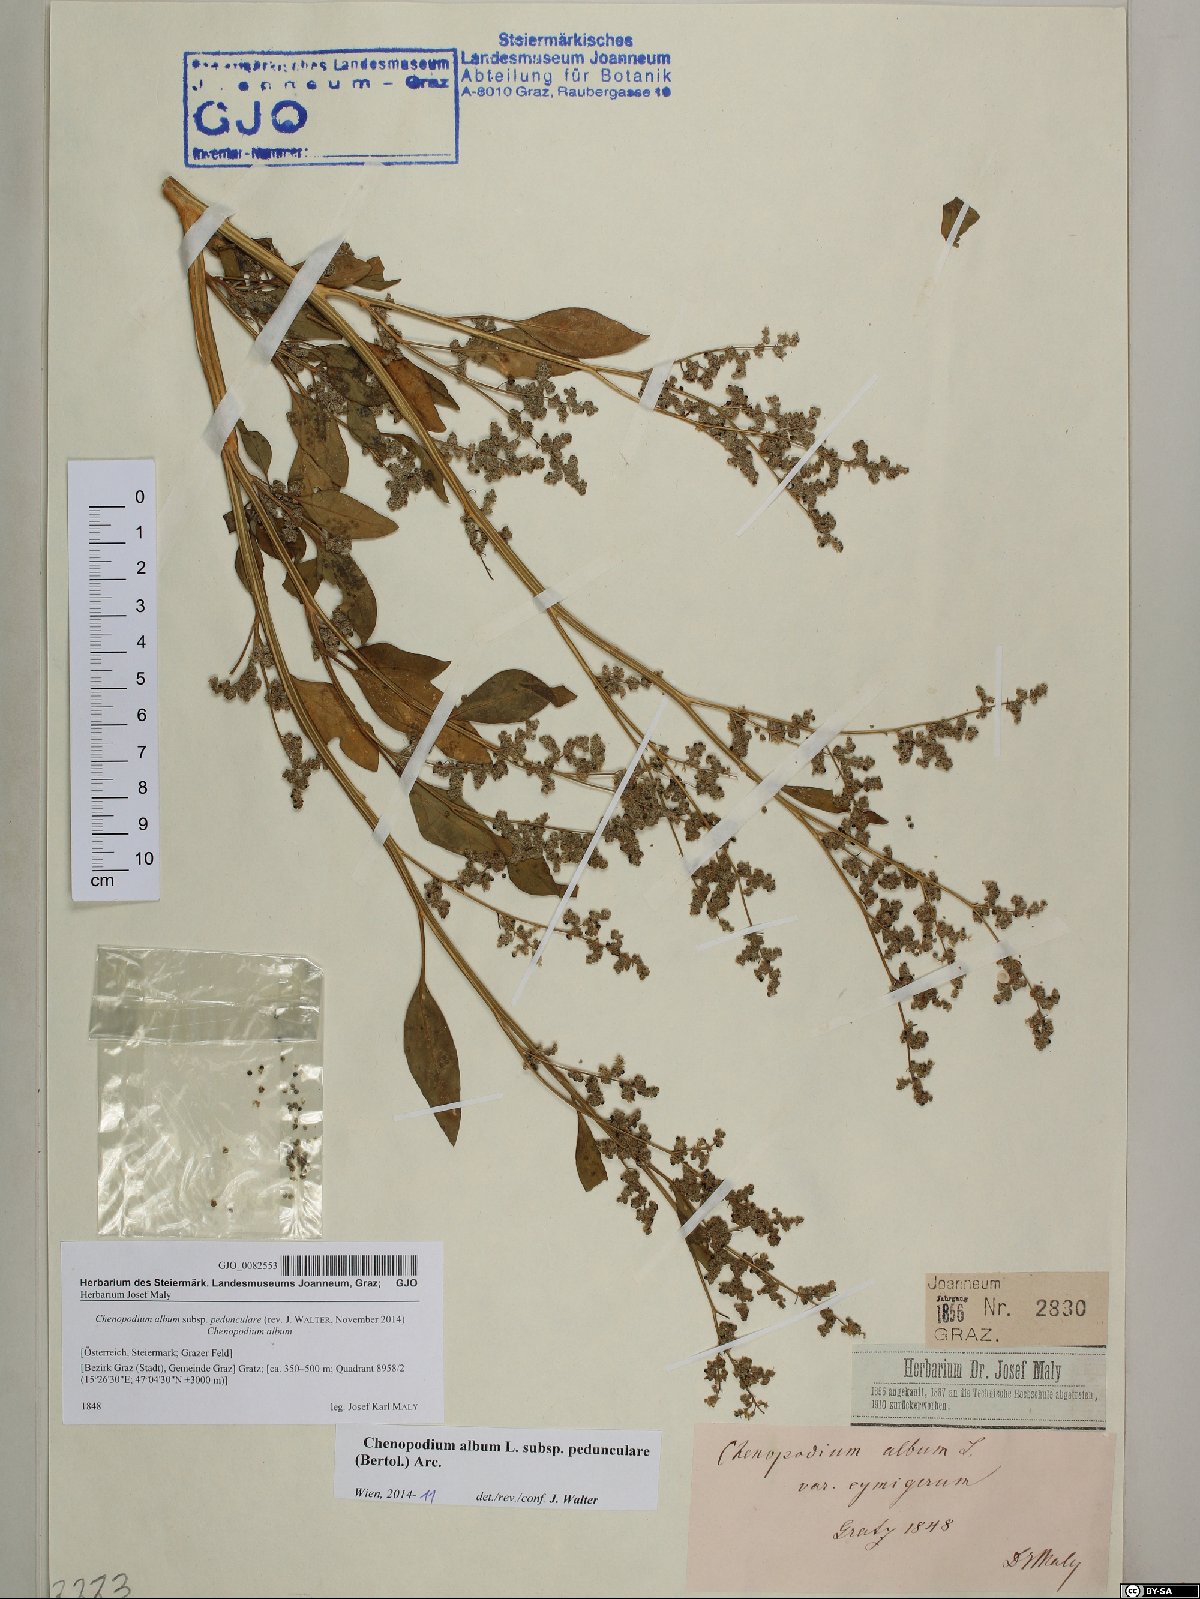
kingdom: Plantae
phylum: Tracheophyta
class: Magnoliopsida
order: Caryophyllales
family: Amaranthaceae
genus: Chenopodium
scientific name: Chenopodium album
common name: Fat-hen
